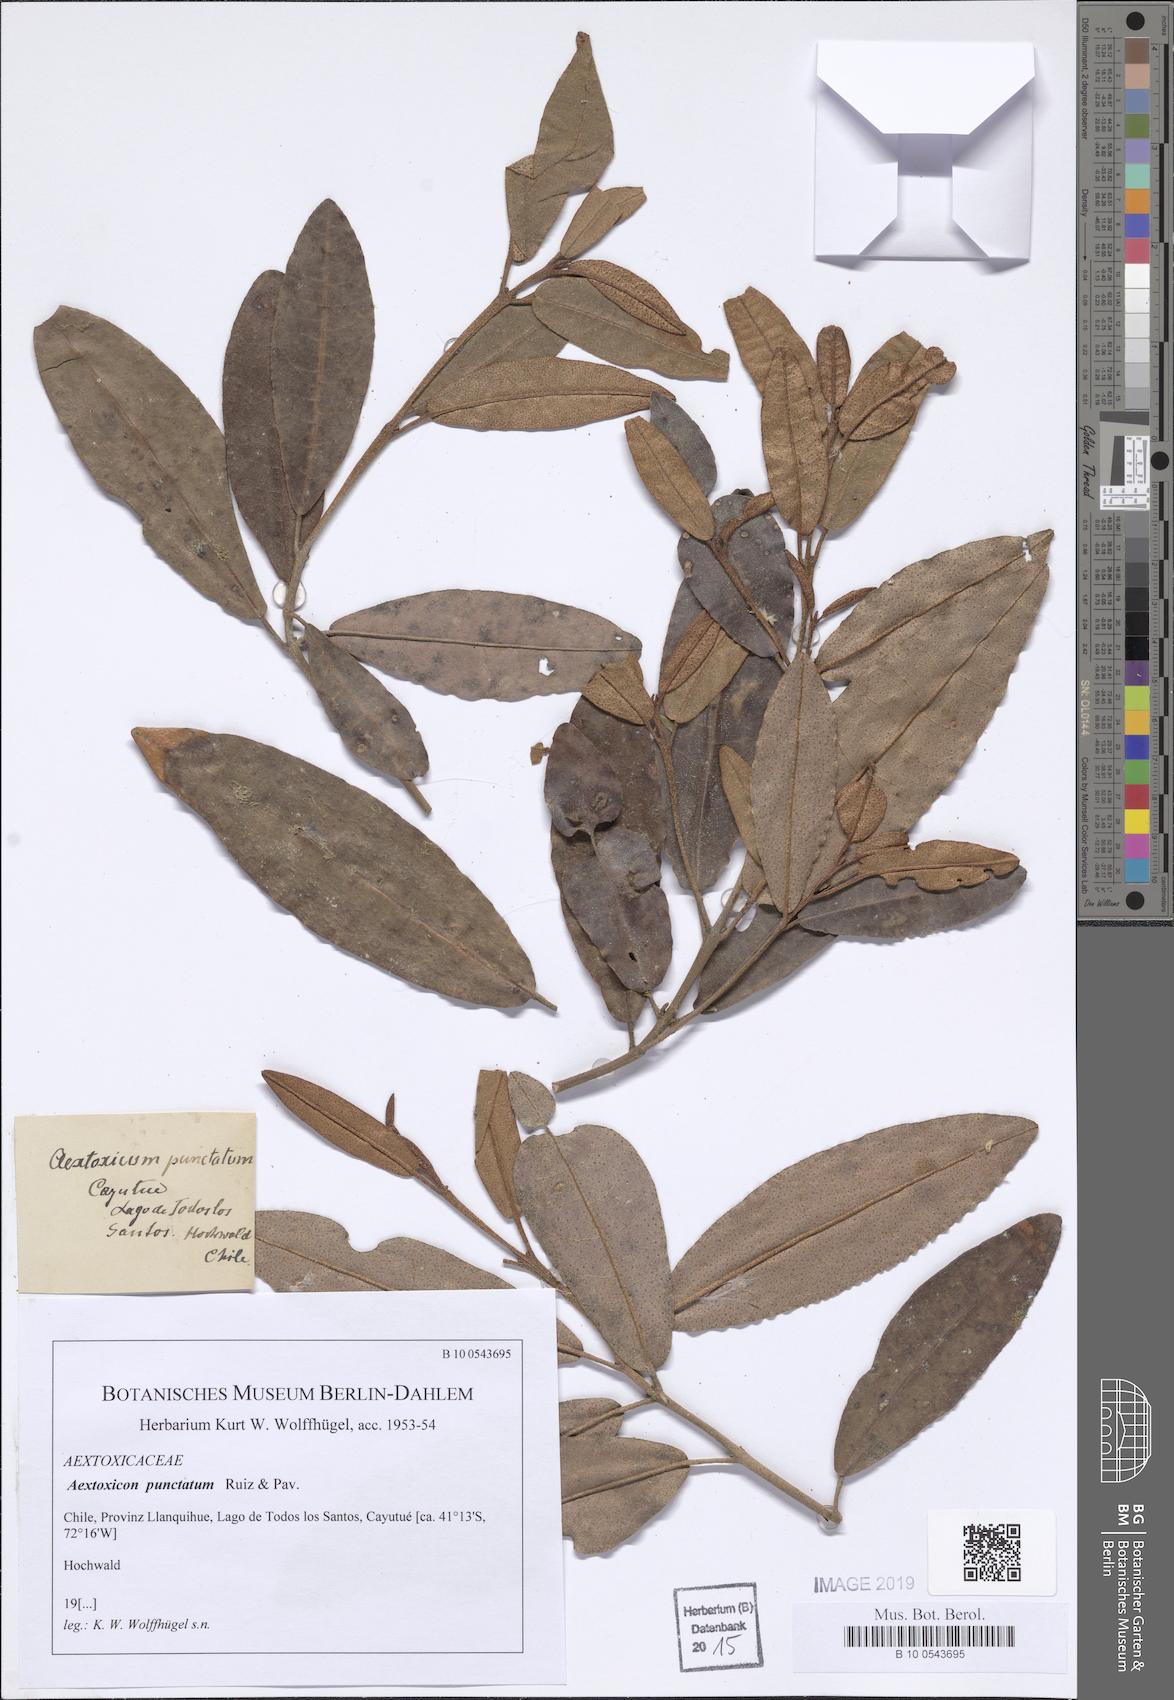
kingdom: Plantae
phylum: Tracheophyta
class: Magnoliopsida
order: Berberidopsidales
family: Aextoxicaceae
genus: Aextoxicon
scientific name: Aextoxicon punctatum
